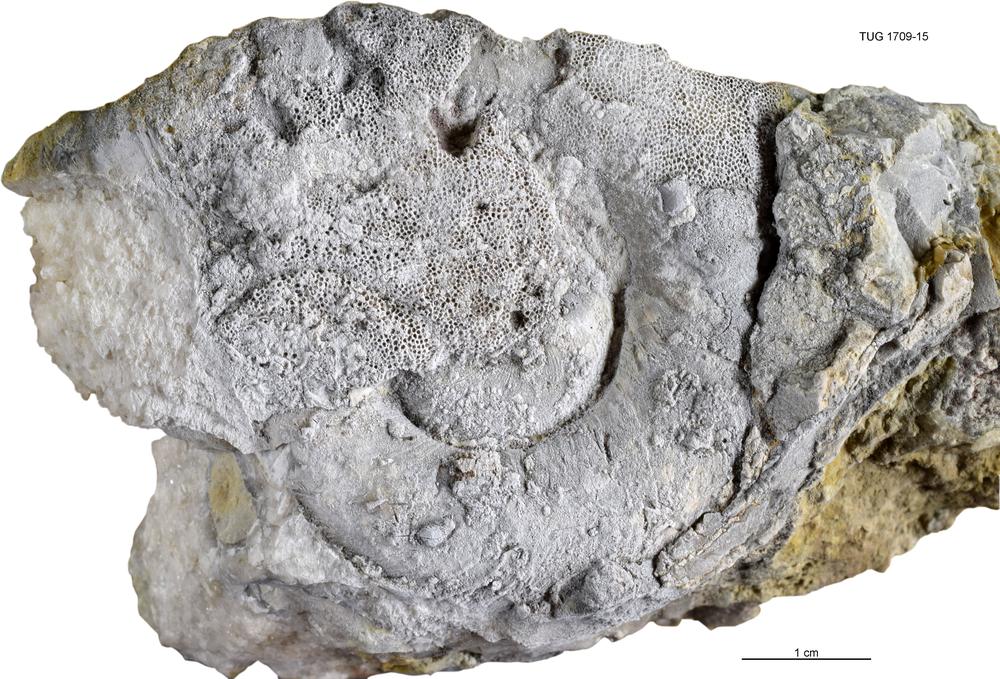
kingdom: Animalia
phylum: Mollusca
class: Cephalopoda
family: Trocholitidae
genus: Discoceras
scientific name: Discoceras
